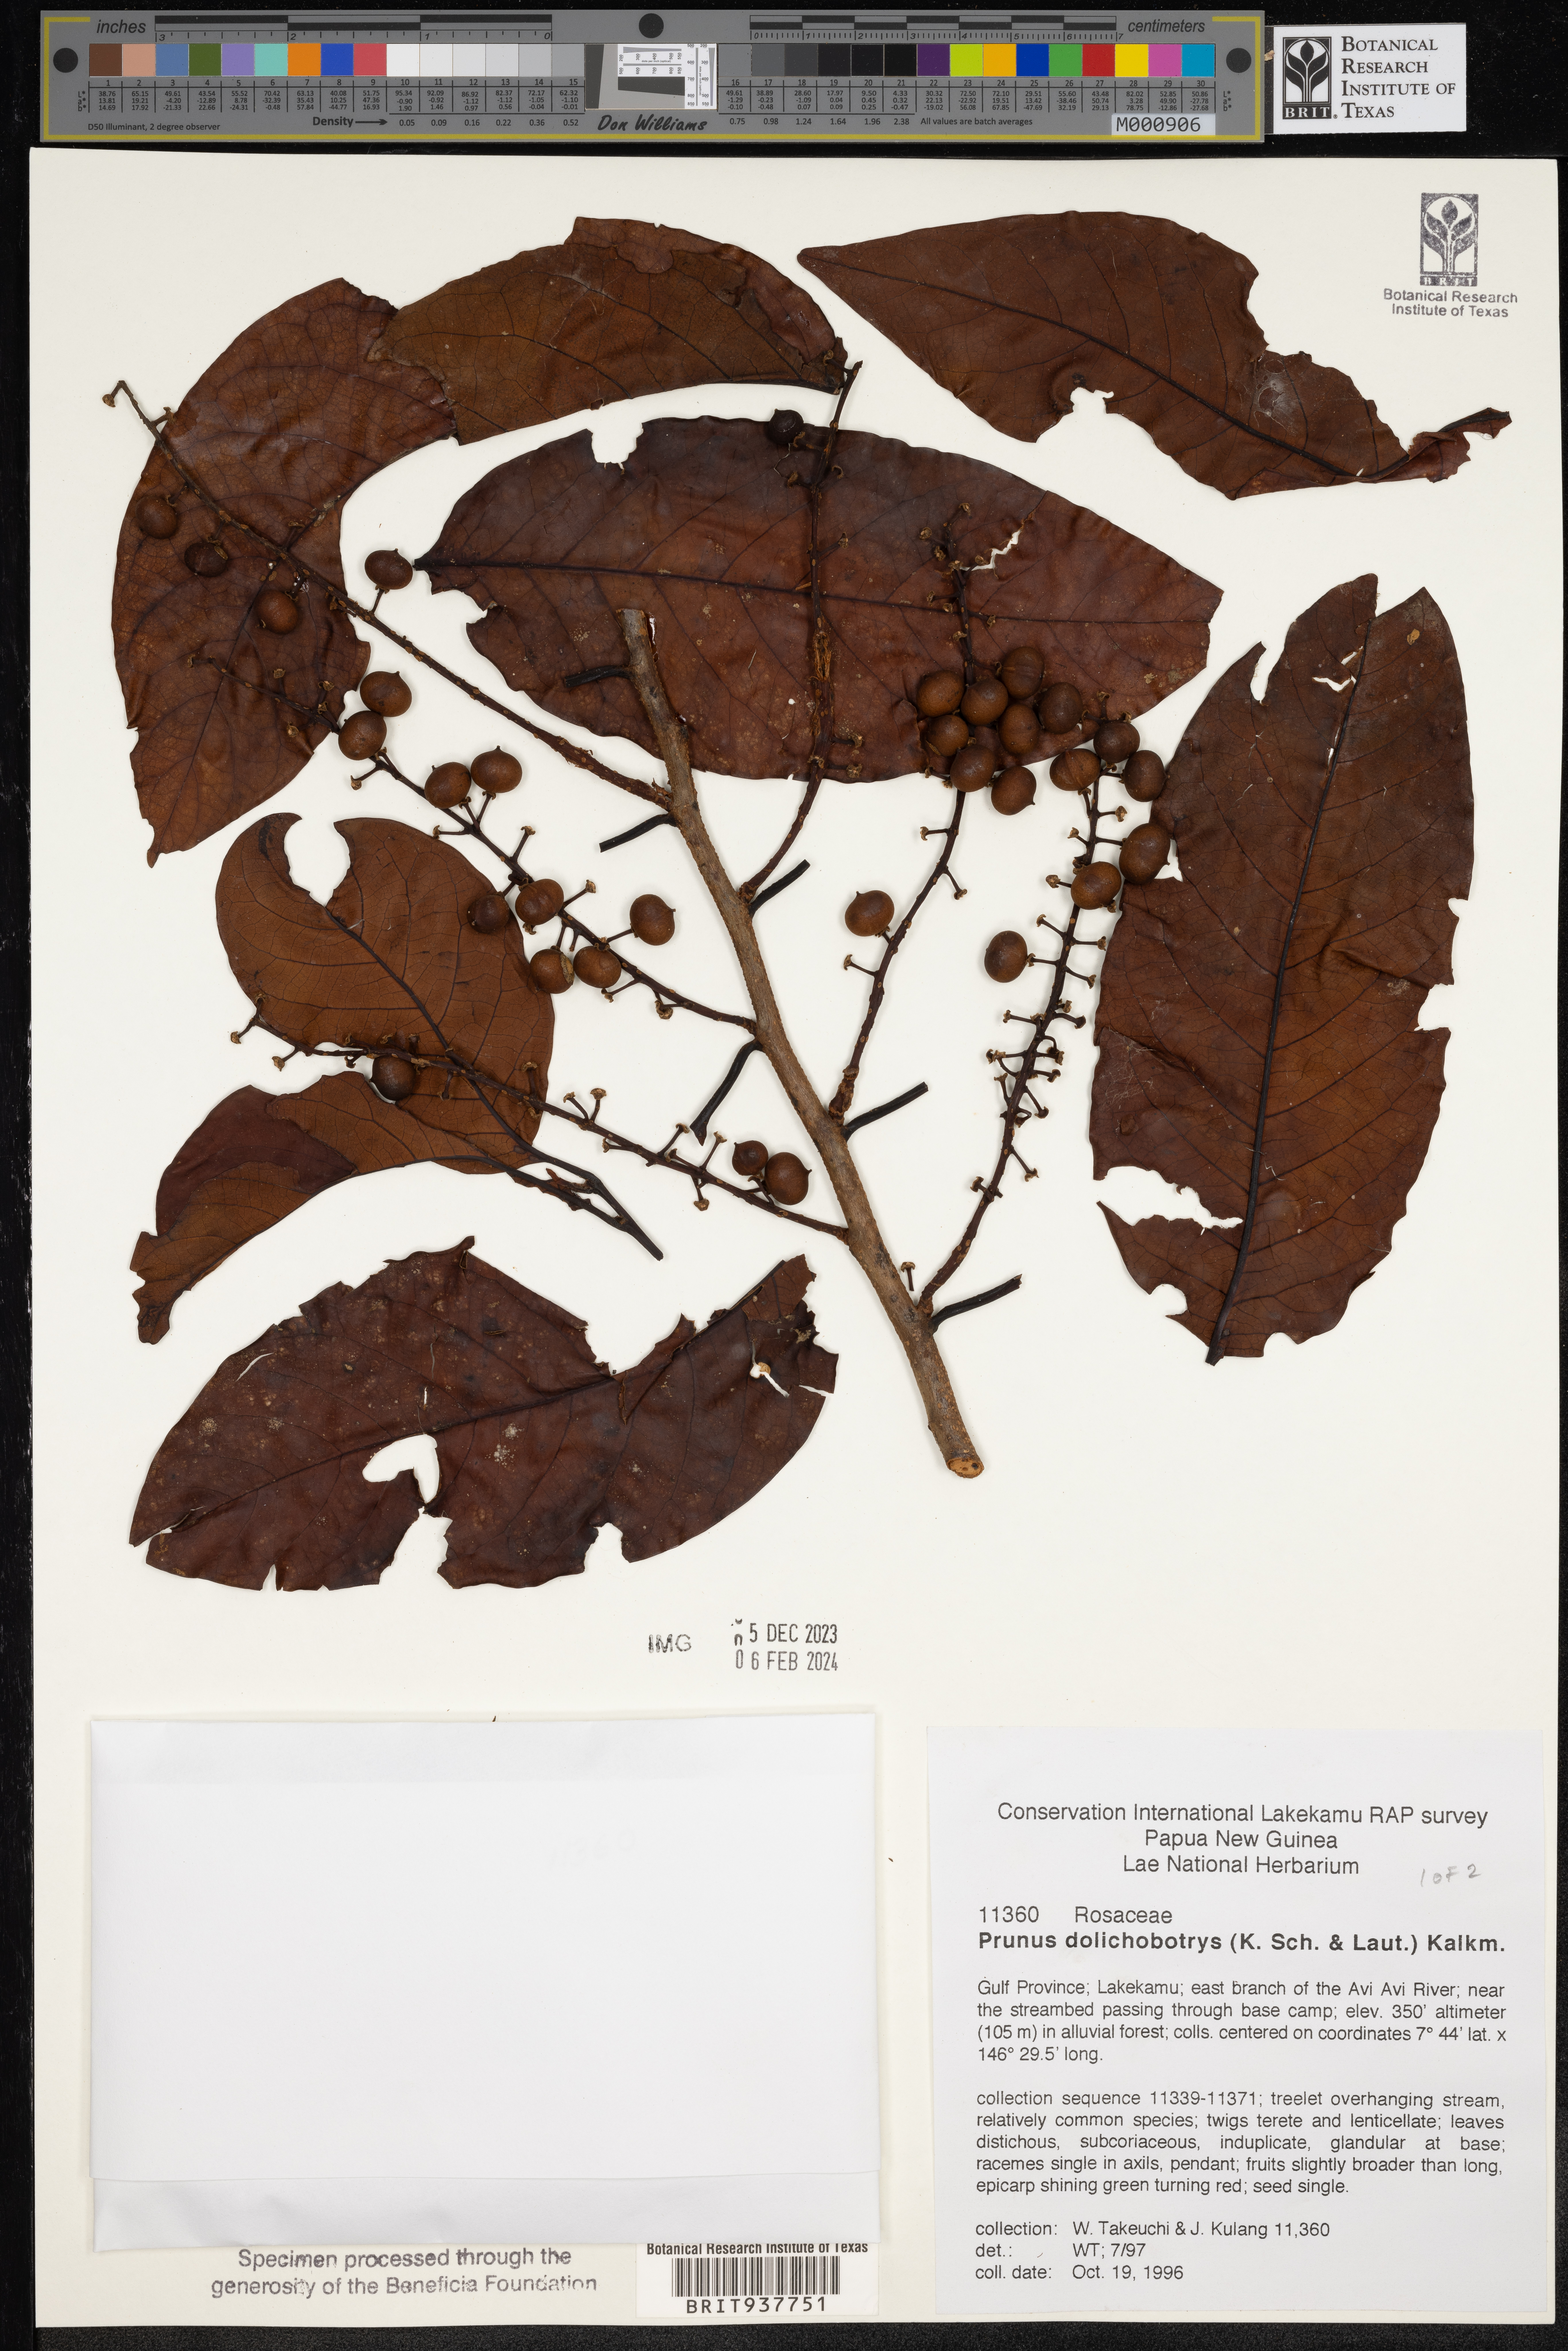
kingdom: Plantae
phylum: Tracheophyta
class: Magnoliopsida
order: Rosales
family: Rosaceae
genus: Prunus
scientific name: Prunus
